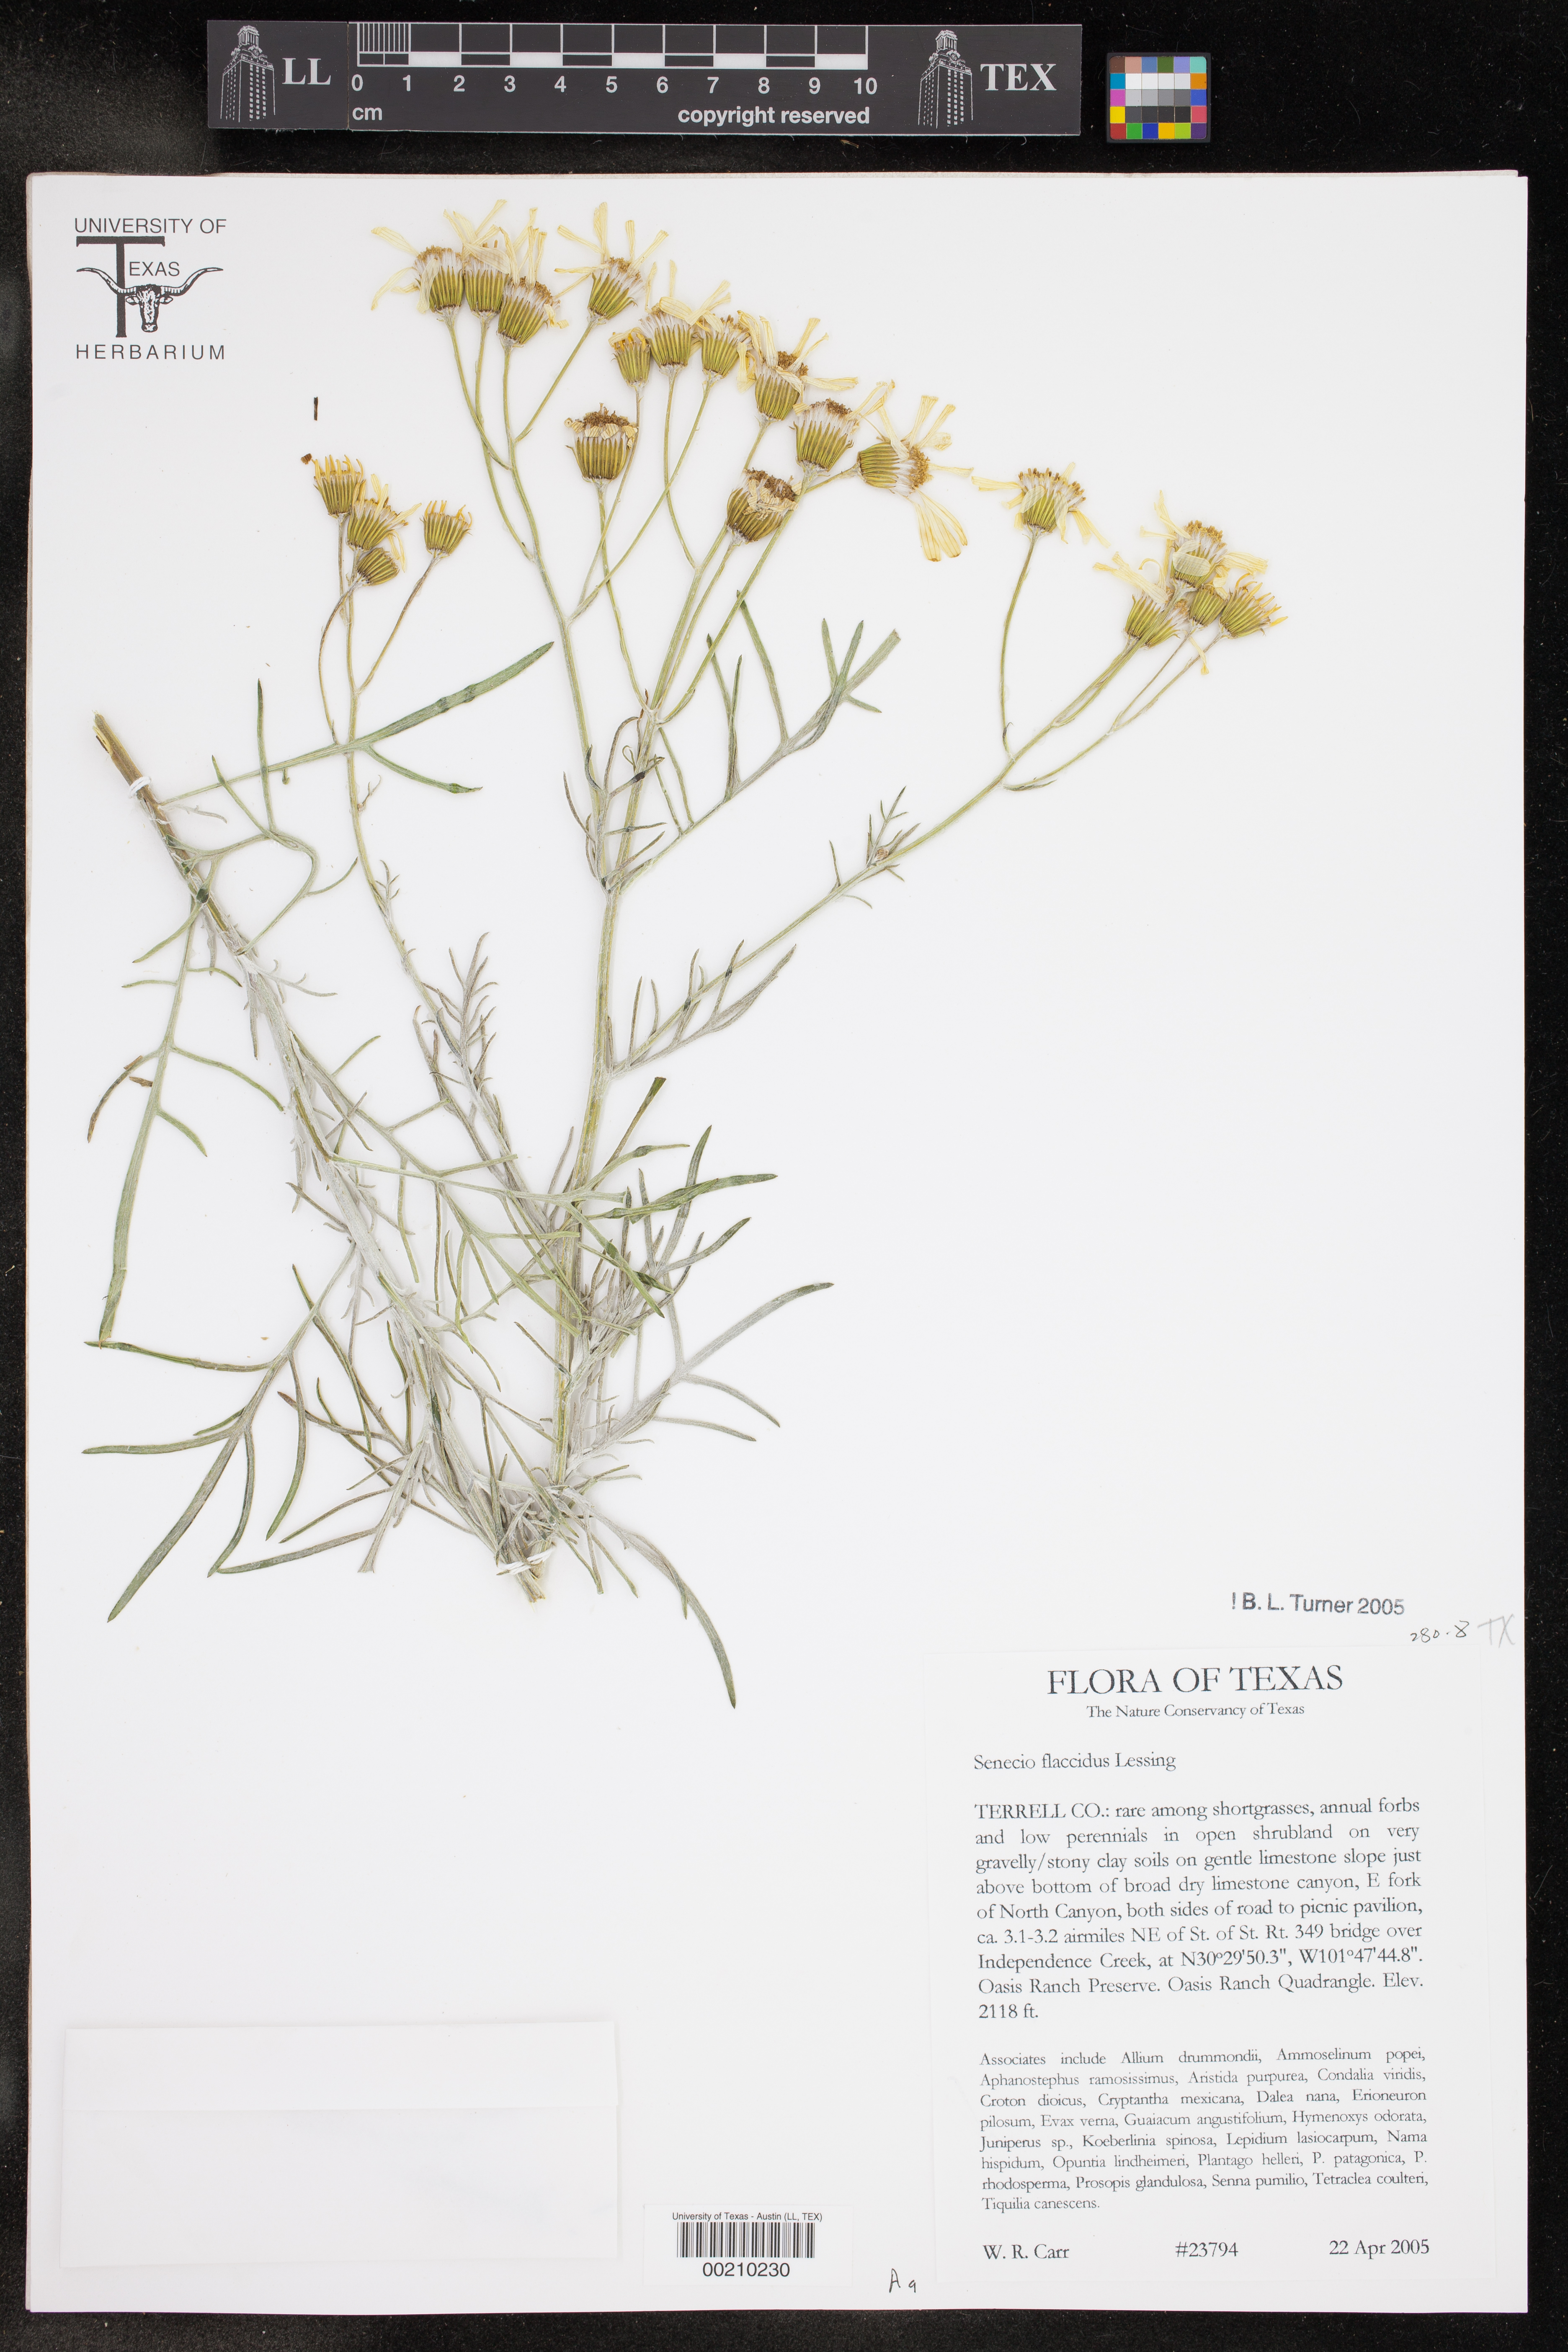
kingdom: Plantae
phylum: Tracheophyta
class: Magnoliopsida
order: Asterales
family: Asteraceae
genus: Senecio
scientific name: Senecio flaccidus
